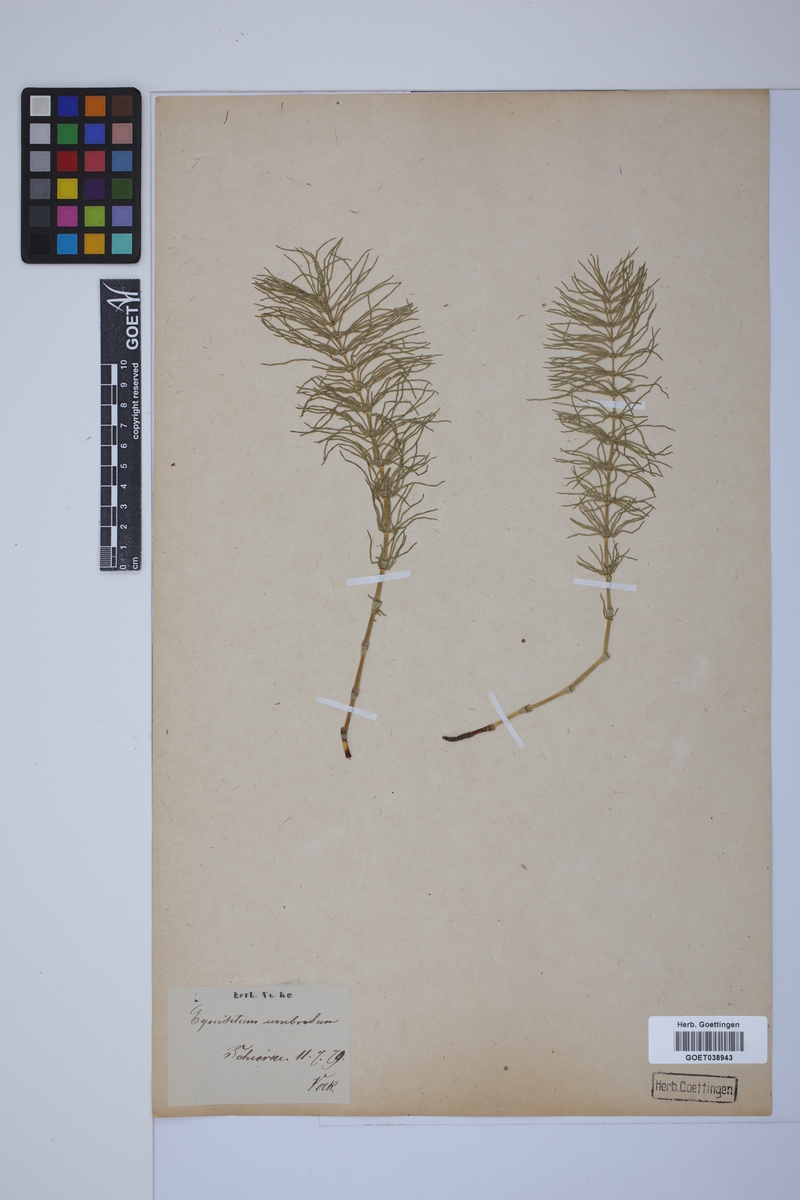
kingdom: Plantae
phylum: Tracheophyta
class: Polypodiopsida
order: Equisetales
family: Equisetaceae
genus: Equisetum
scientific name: Equisetum pratense
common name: Meadow horsetail
